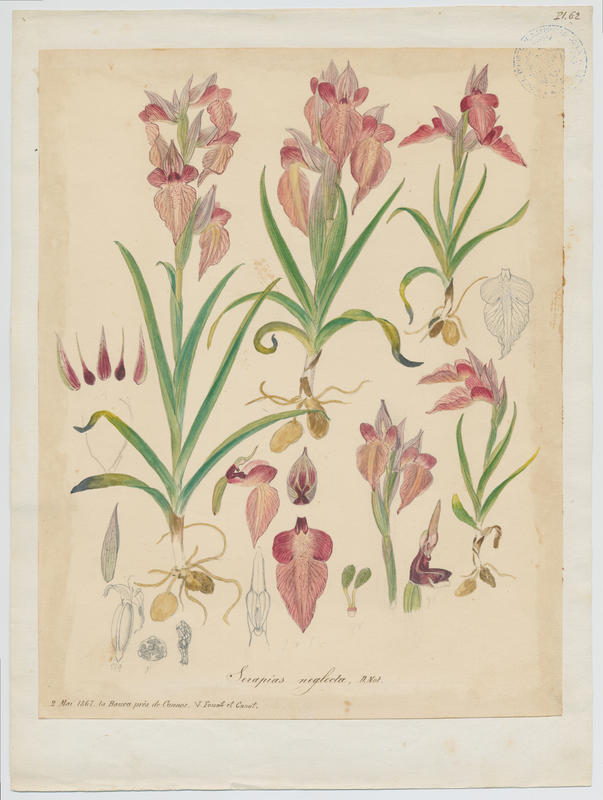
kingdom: Plantae
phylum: Tracheophyta
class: Liliopsida
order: Asparagales
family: Orchidaceae
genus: Serapias
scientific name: Serapias neglecta
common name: Neglected serapias
